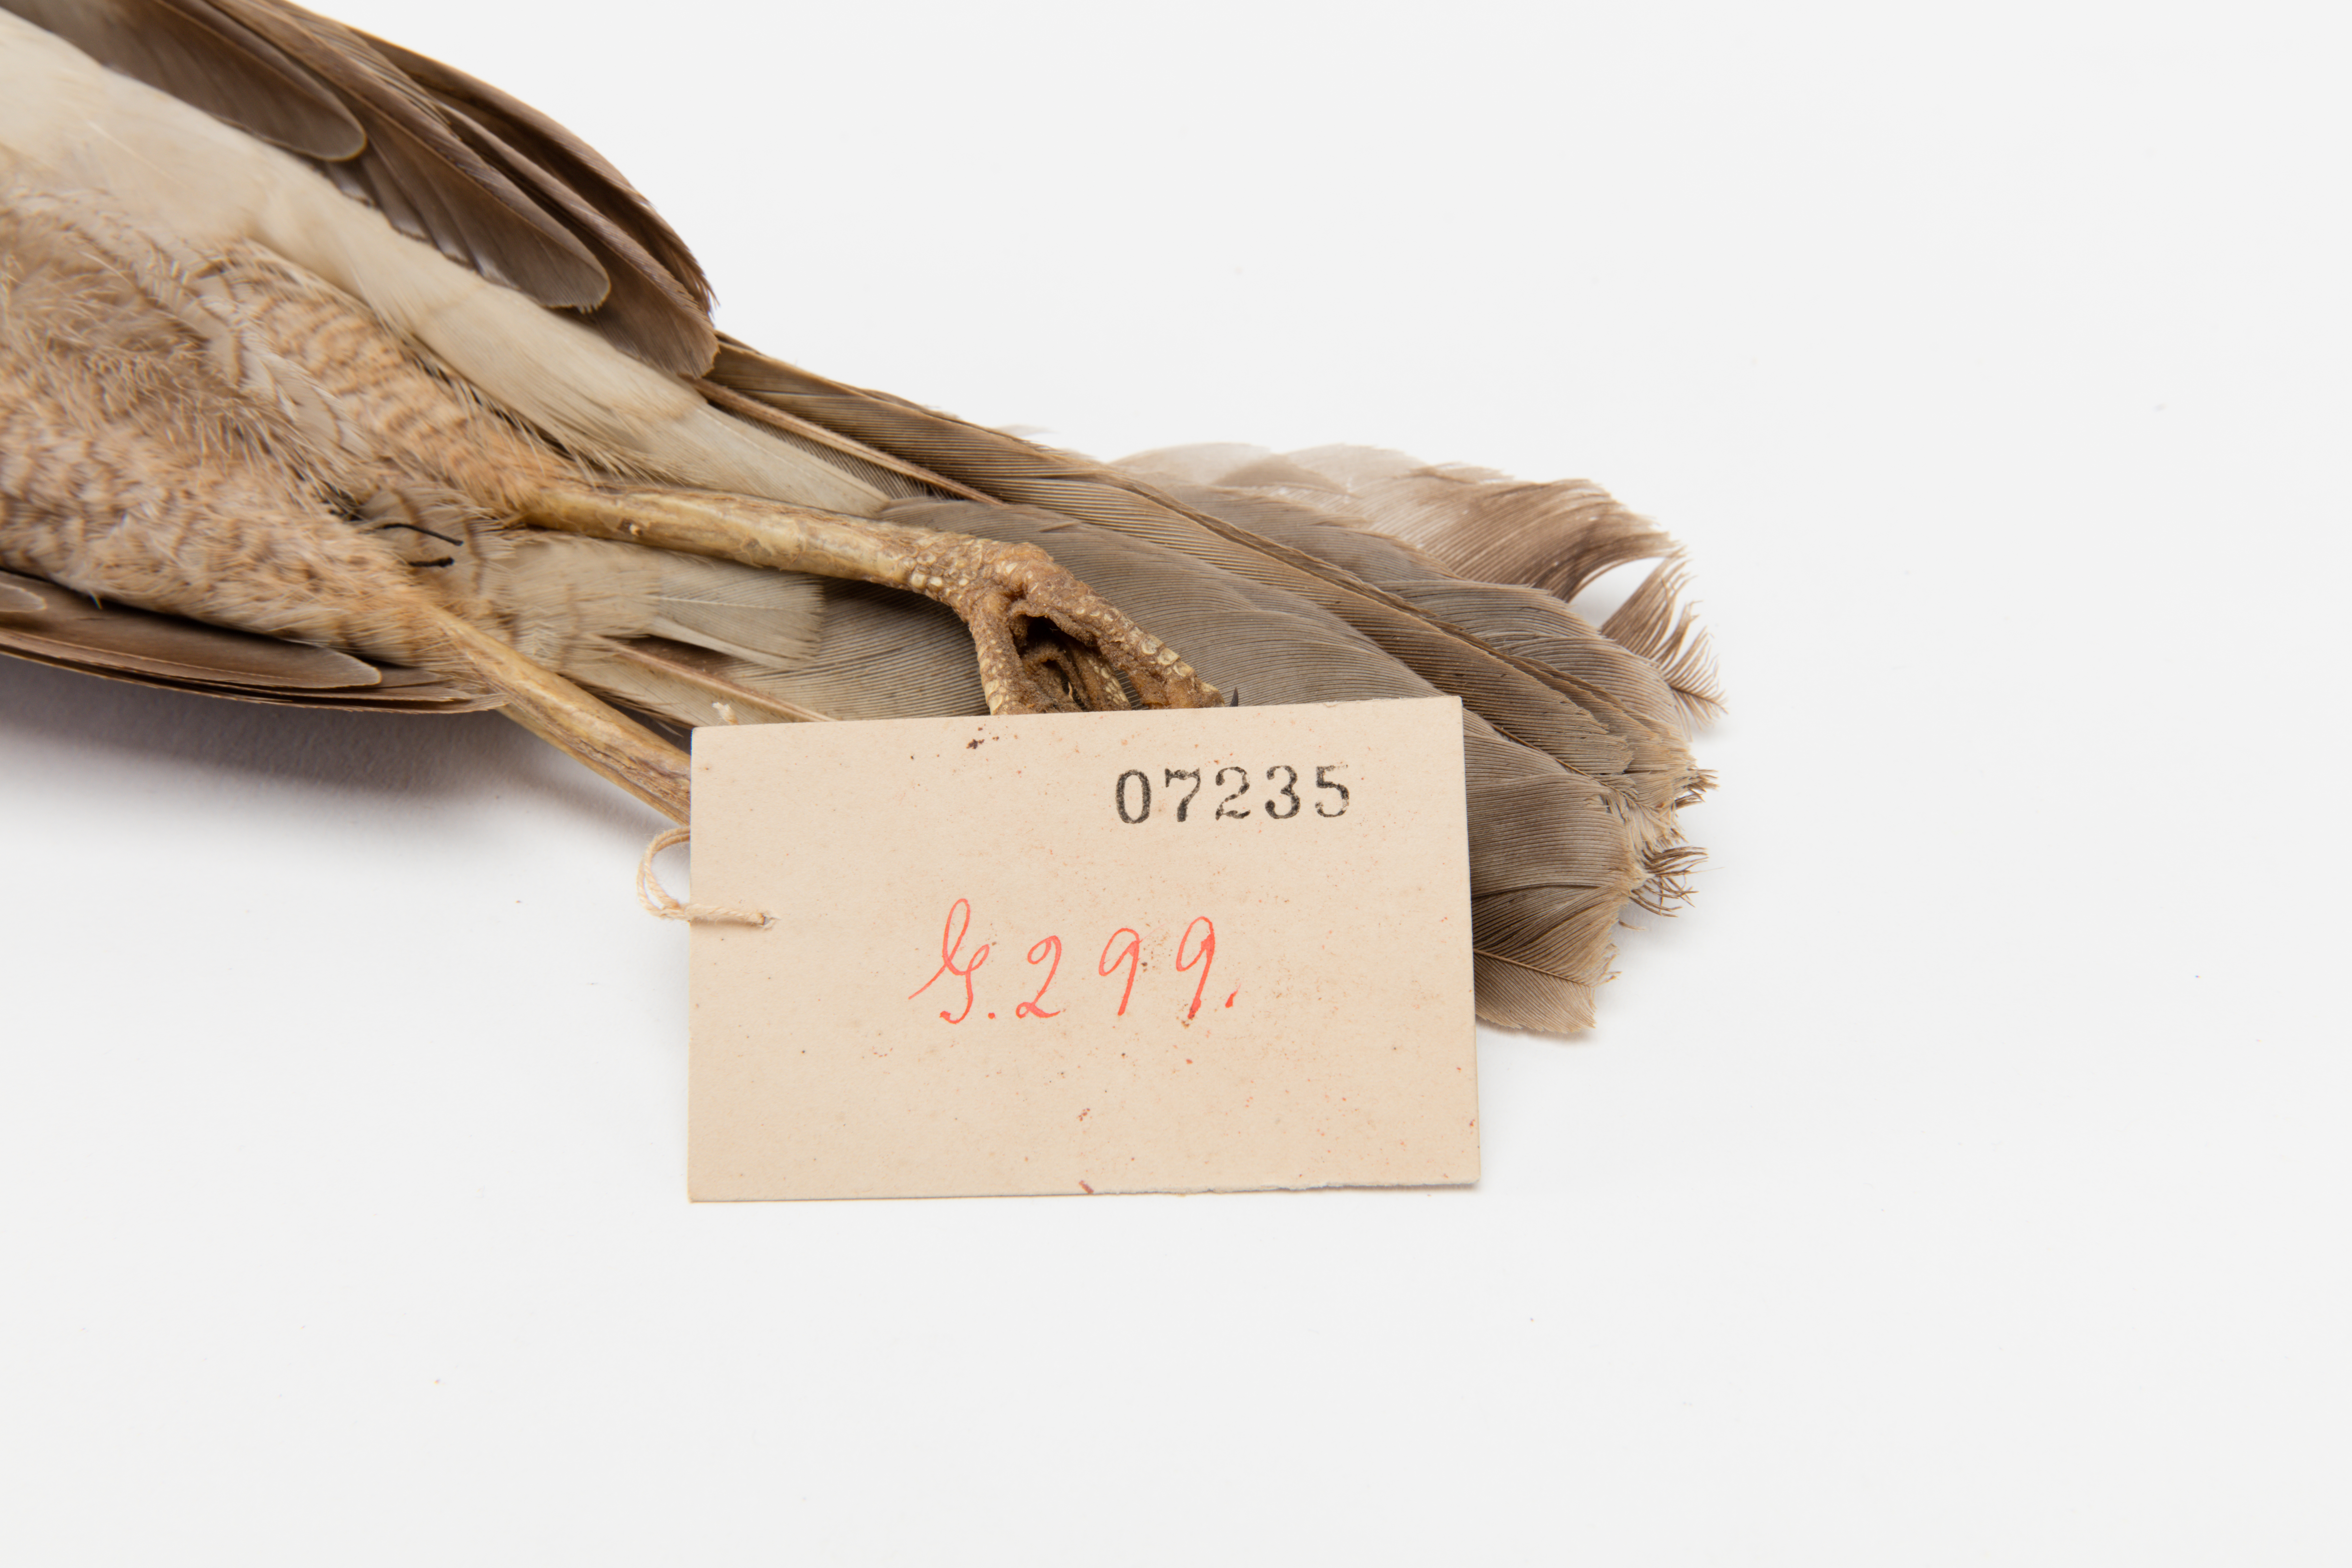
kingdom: Animalia
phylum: Chordata
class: Aves
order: Accipitriformes
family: Accipitridae
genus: Accipiter
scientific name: Accipiter nisus
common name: Eurasian sparrowhawk
